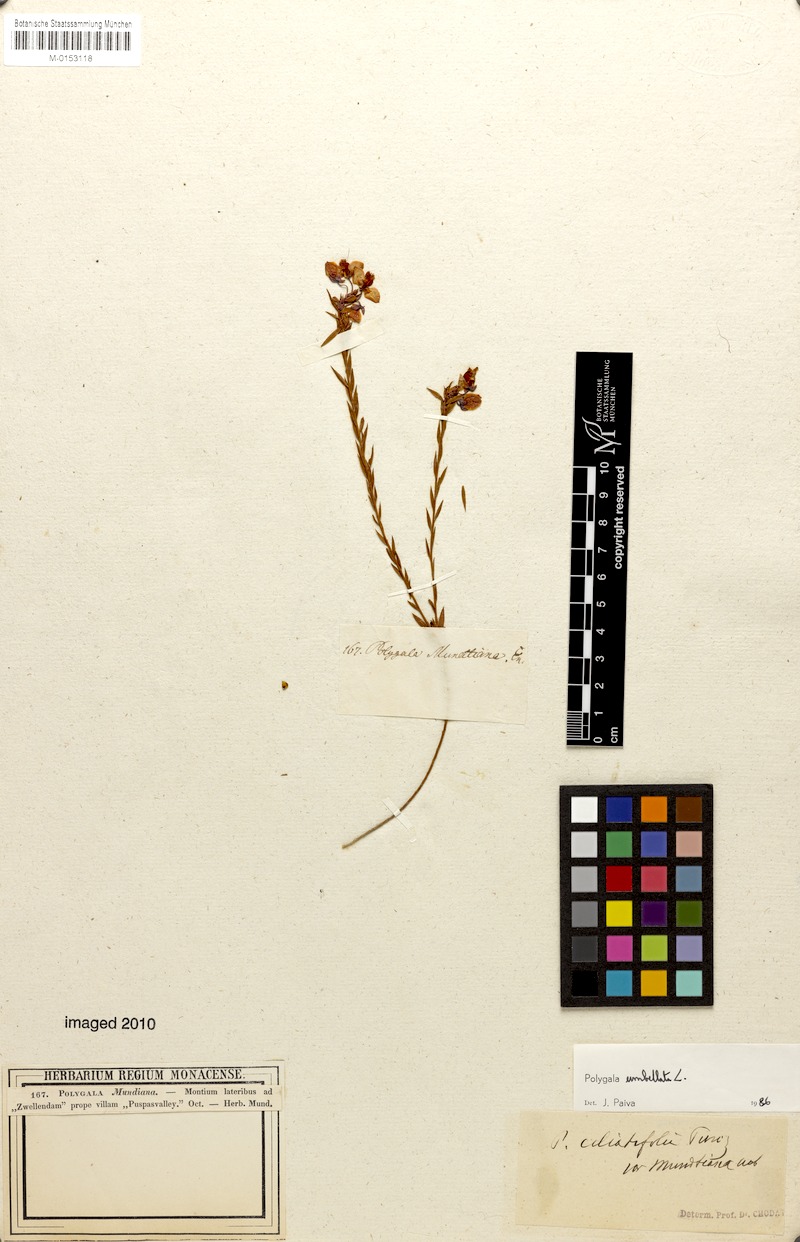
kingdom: Plantae
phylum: Tracheophyta
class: Magnoliopsida
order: Fabales
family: Polygalaceae
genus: Polygala
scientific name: Polygala umbellata
